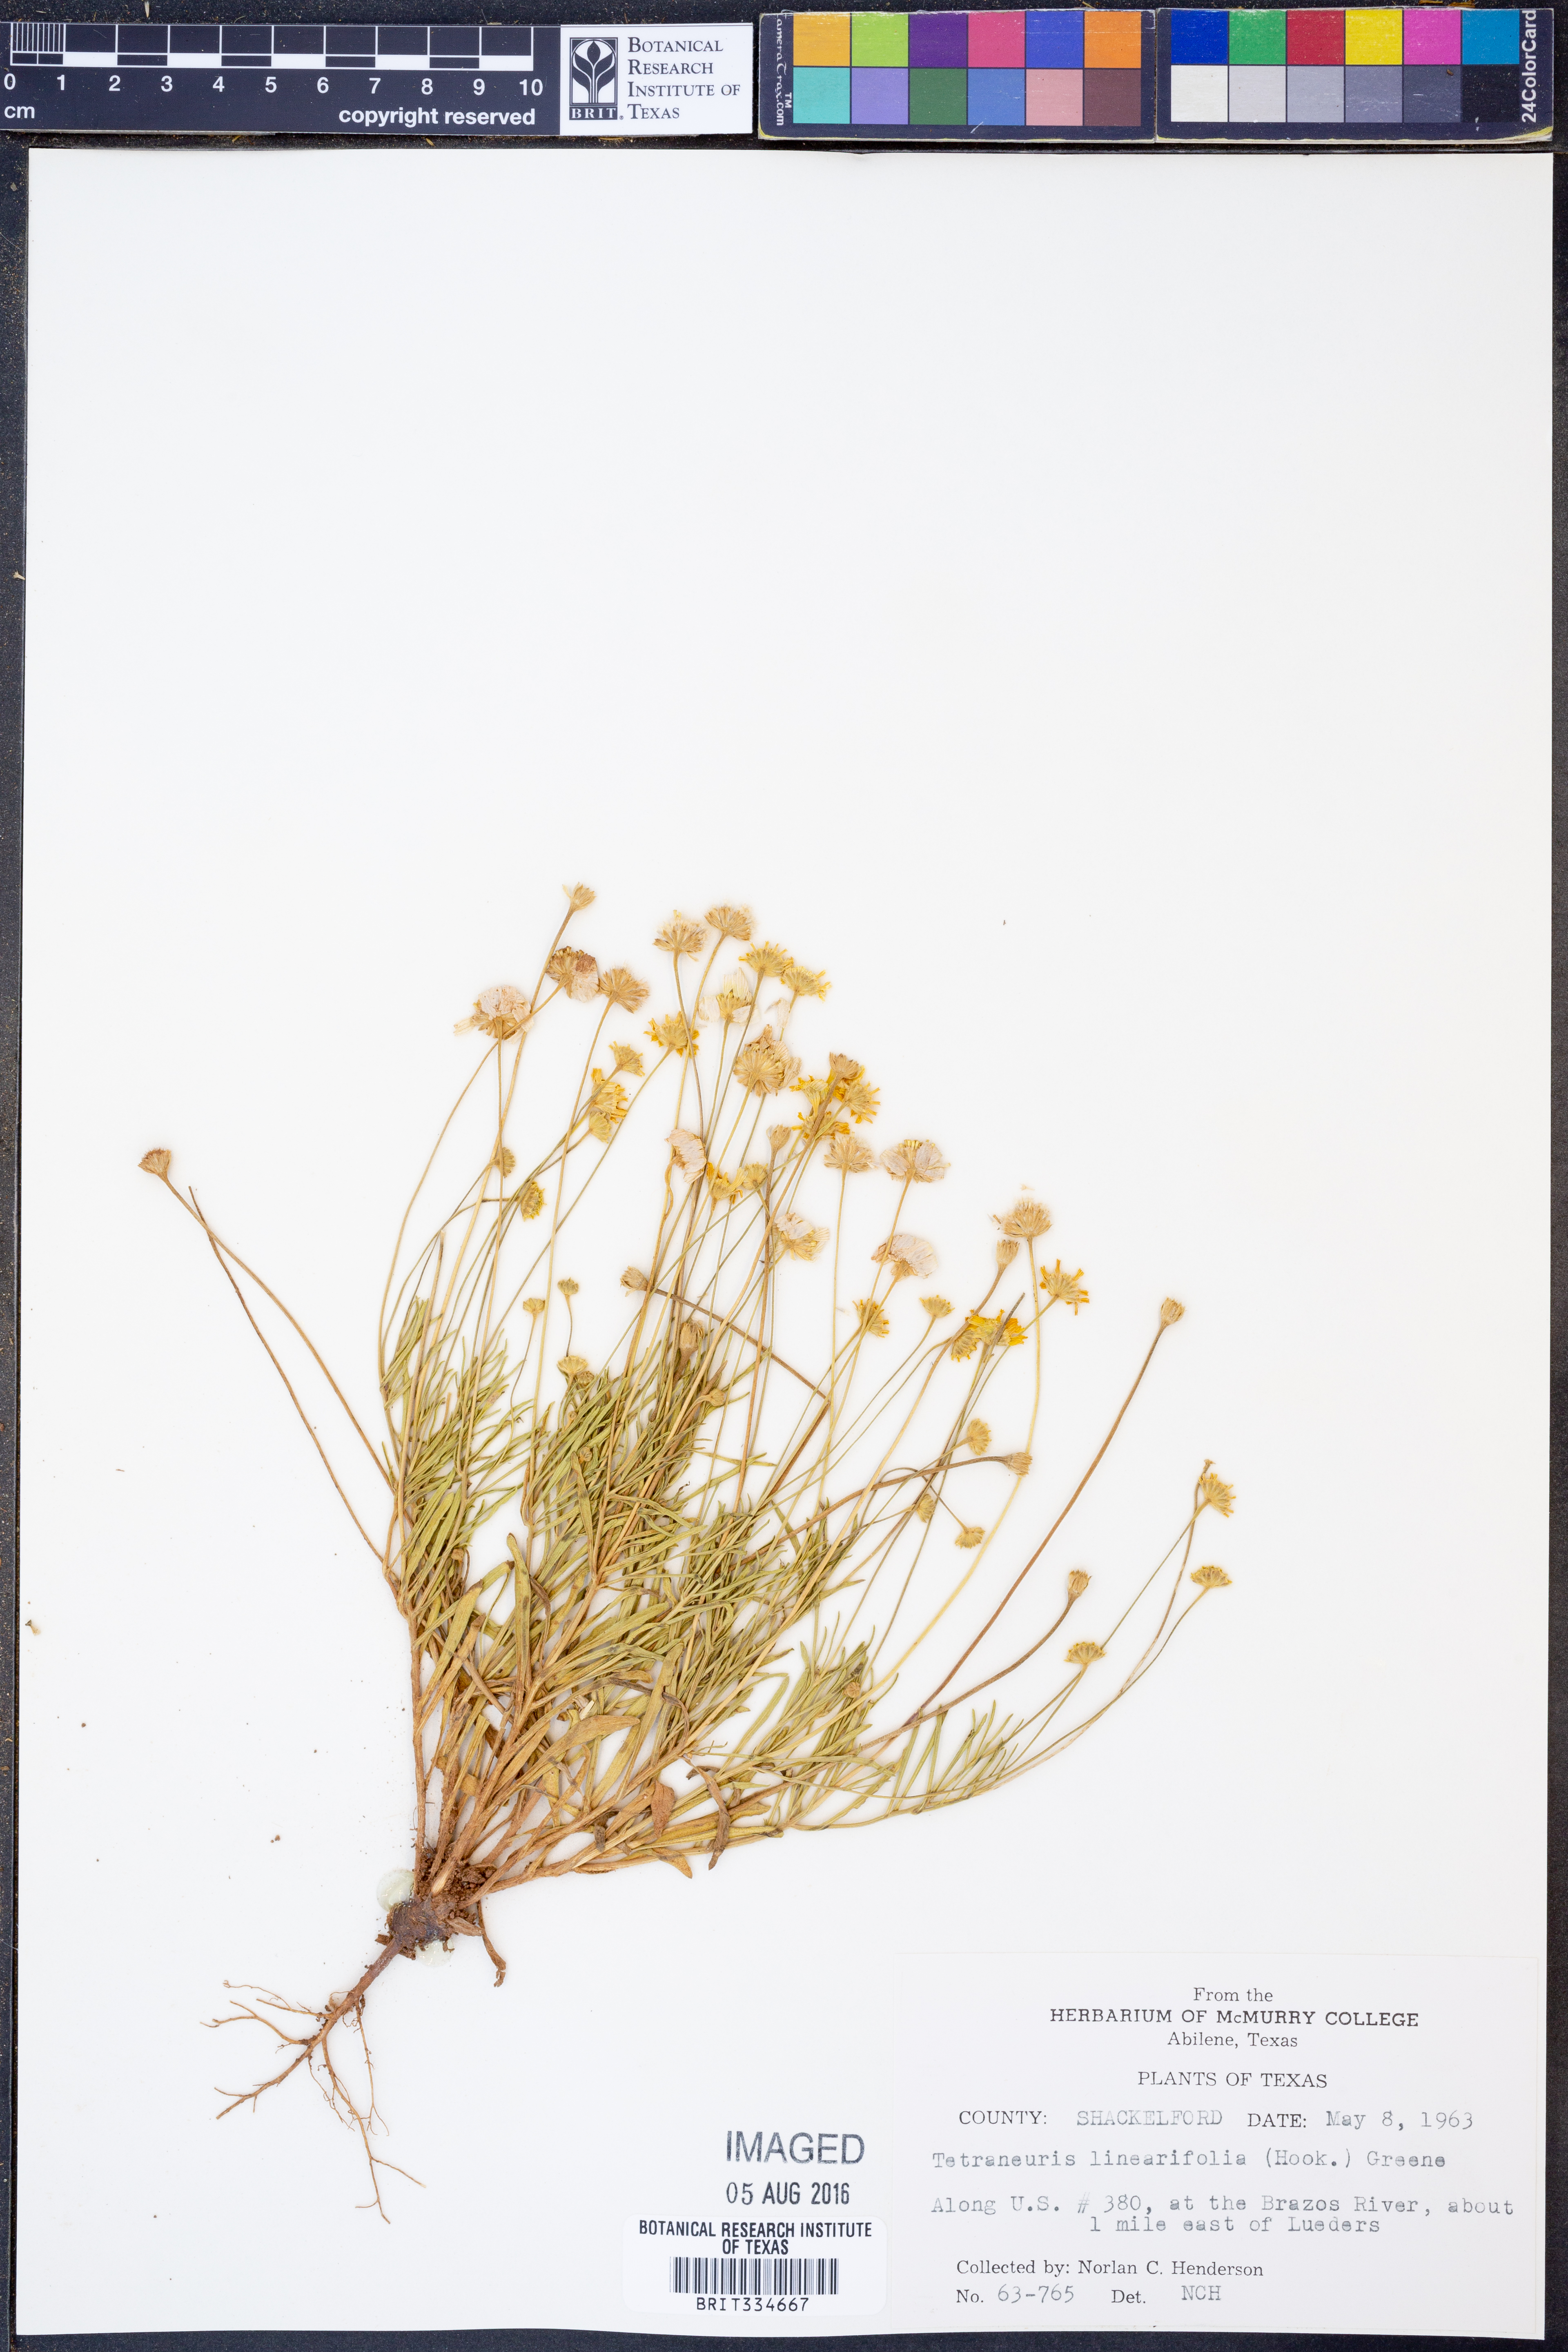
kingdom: Plantae
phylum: Tracheophyta
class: Magnoliopsida
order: Asterales
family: Asteraceae
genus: Tetraneuris
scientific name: Tetraneuris linearifolia
